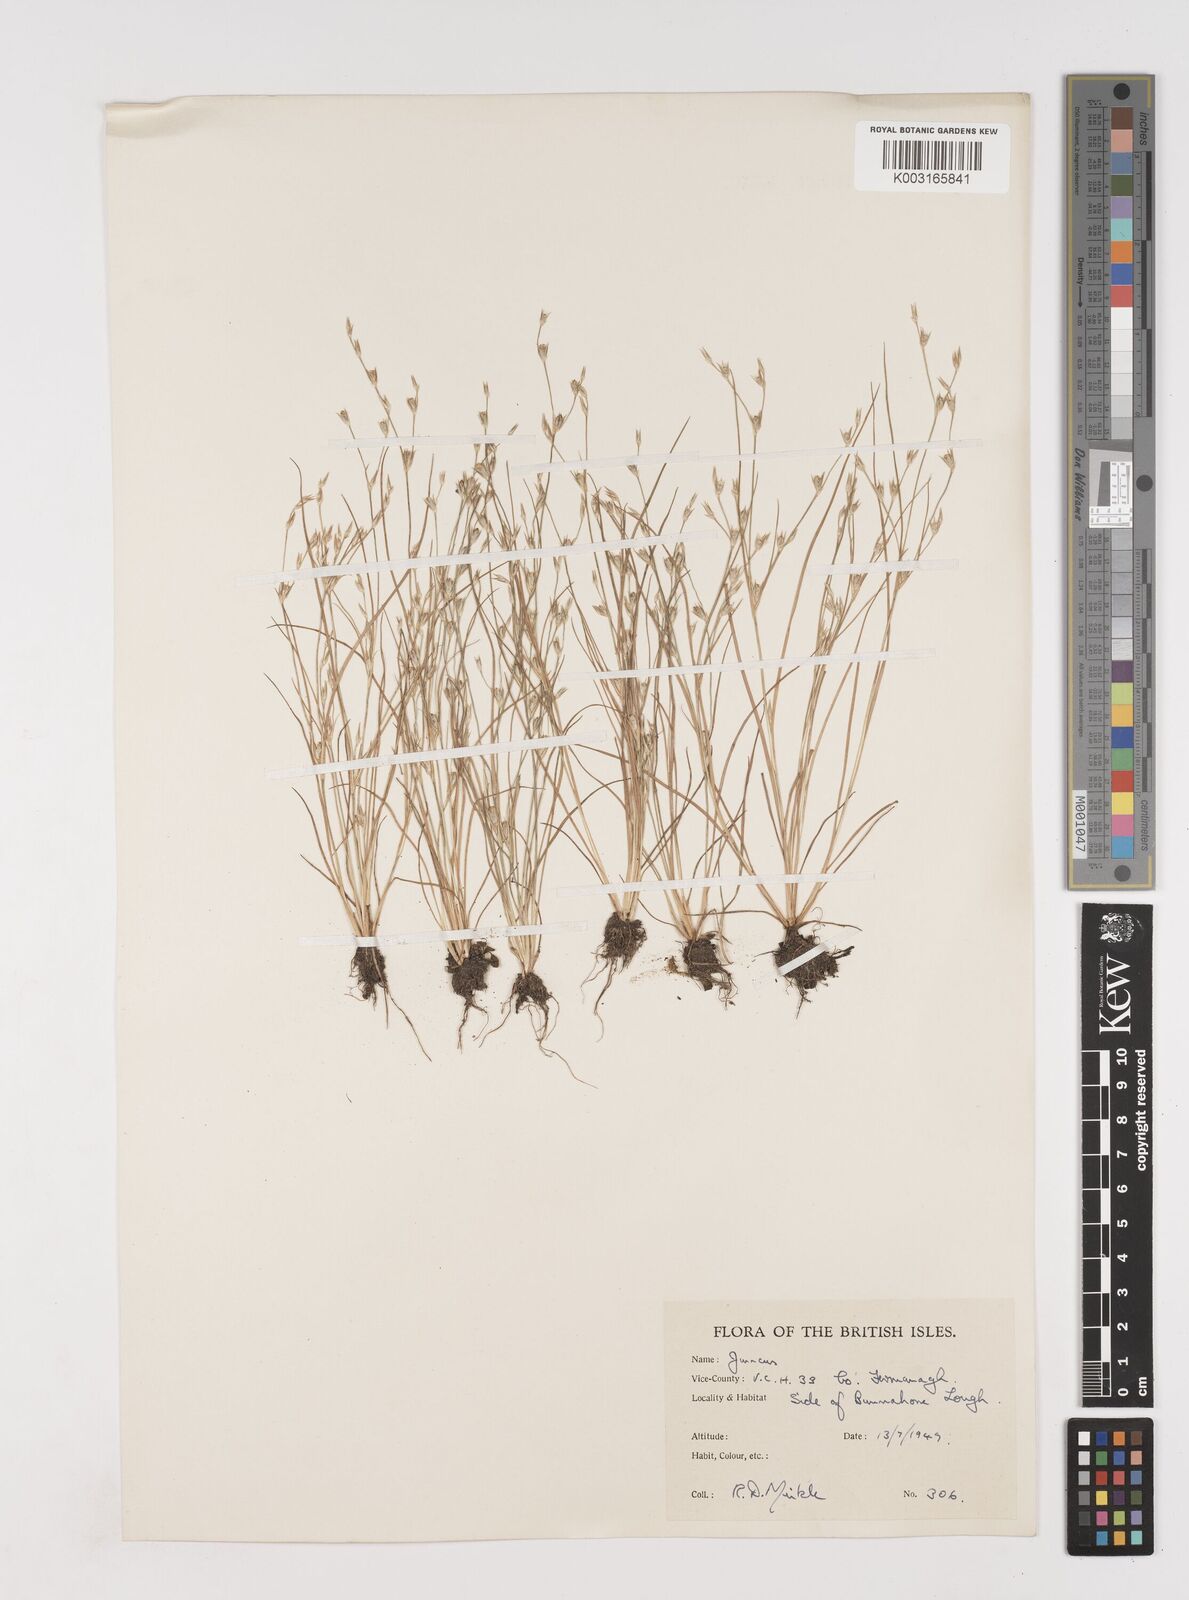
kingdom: Plantae
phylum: Tracheophyta
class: Liliopsida
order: Poales
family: Juncaceae
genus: Juncus
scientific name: Juncus bufonius
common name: Toad rush
